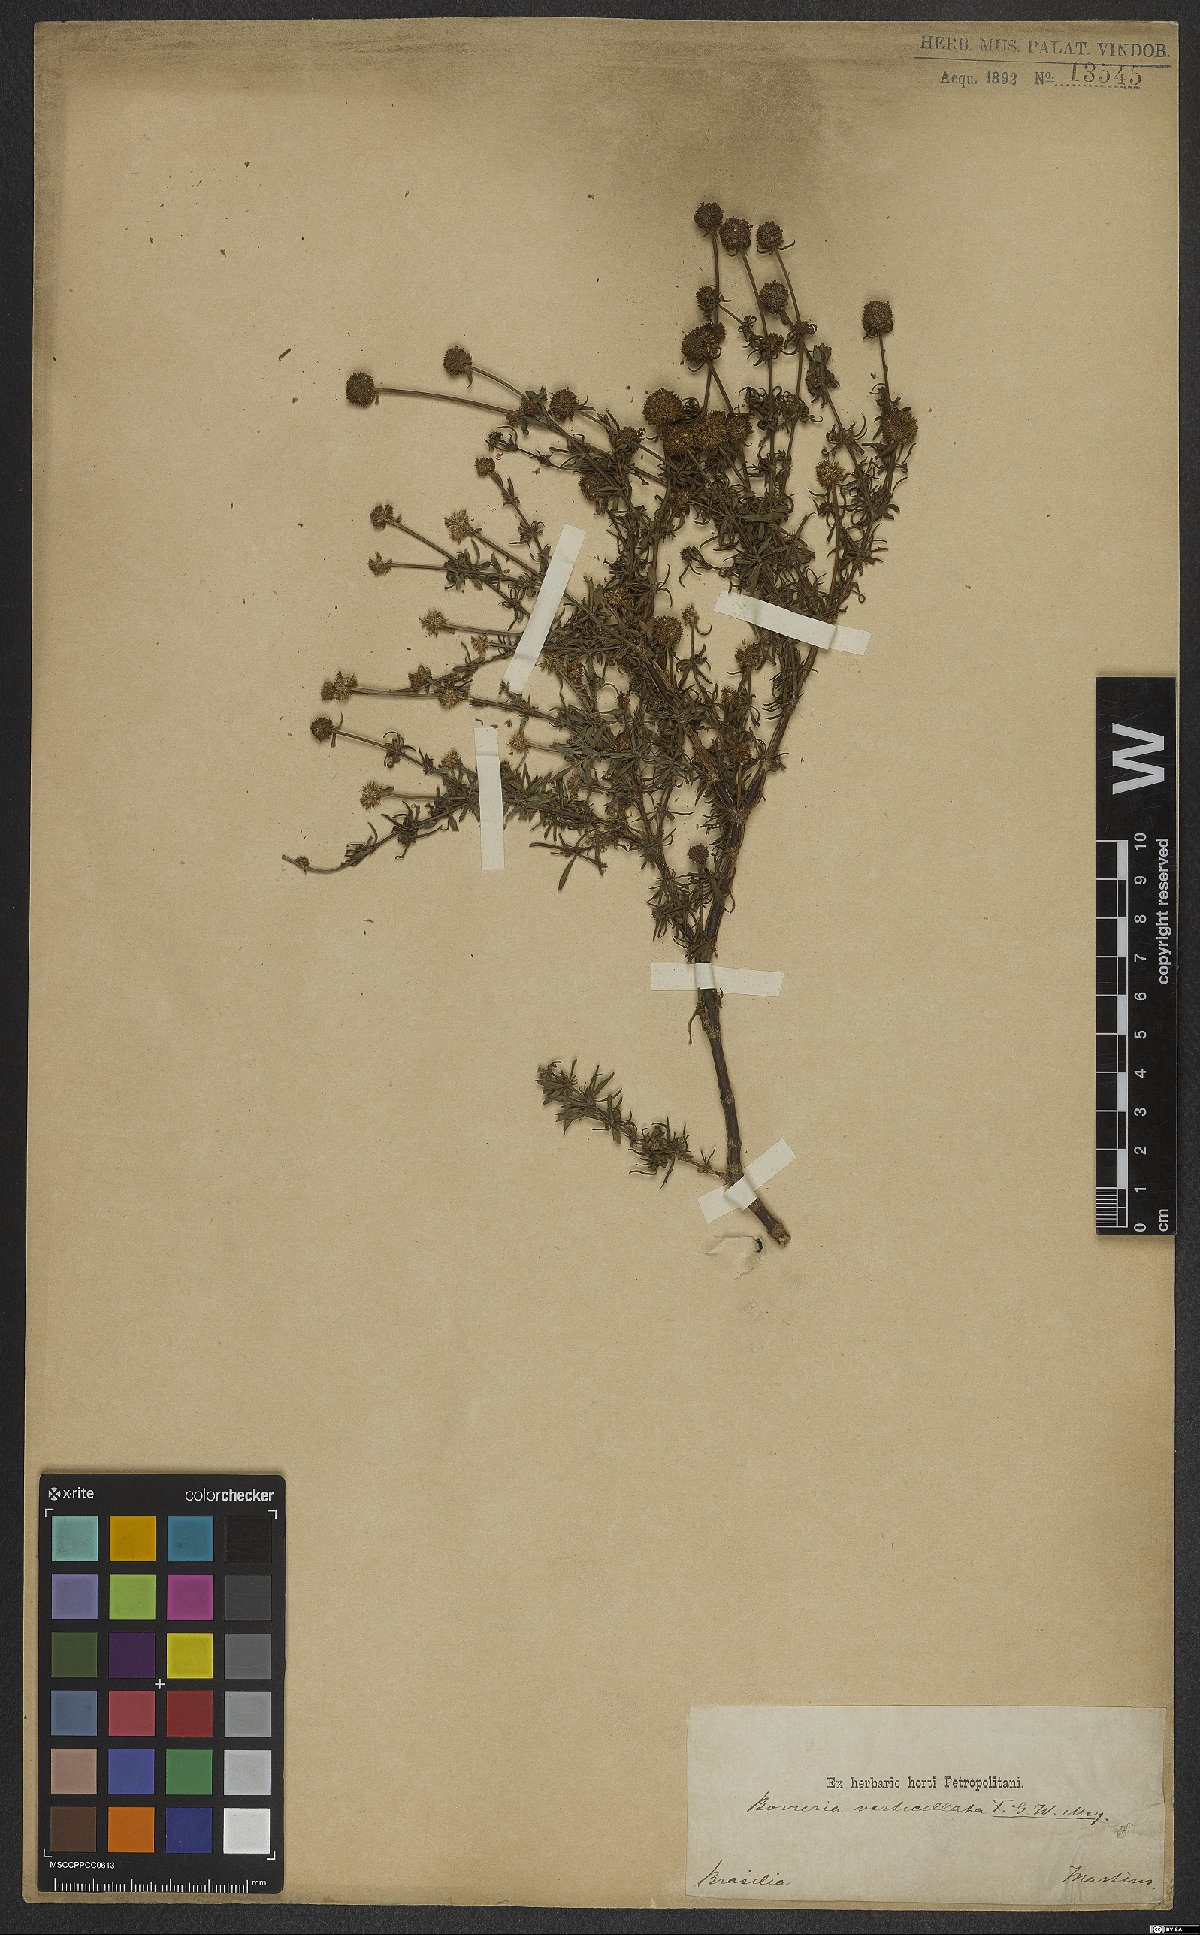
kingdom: Plantae
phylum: Tracheophyta
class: Magnoliopsida
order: Gentianales
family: Rubiaceae
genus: Spermacoce
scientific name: Spermacoce verticillata
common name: Shrubby false buttonweed
